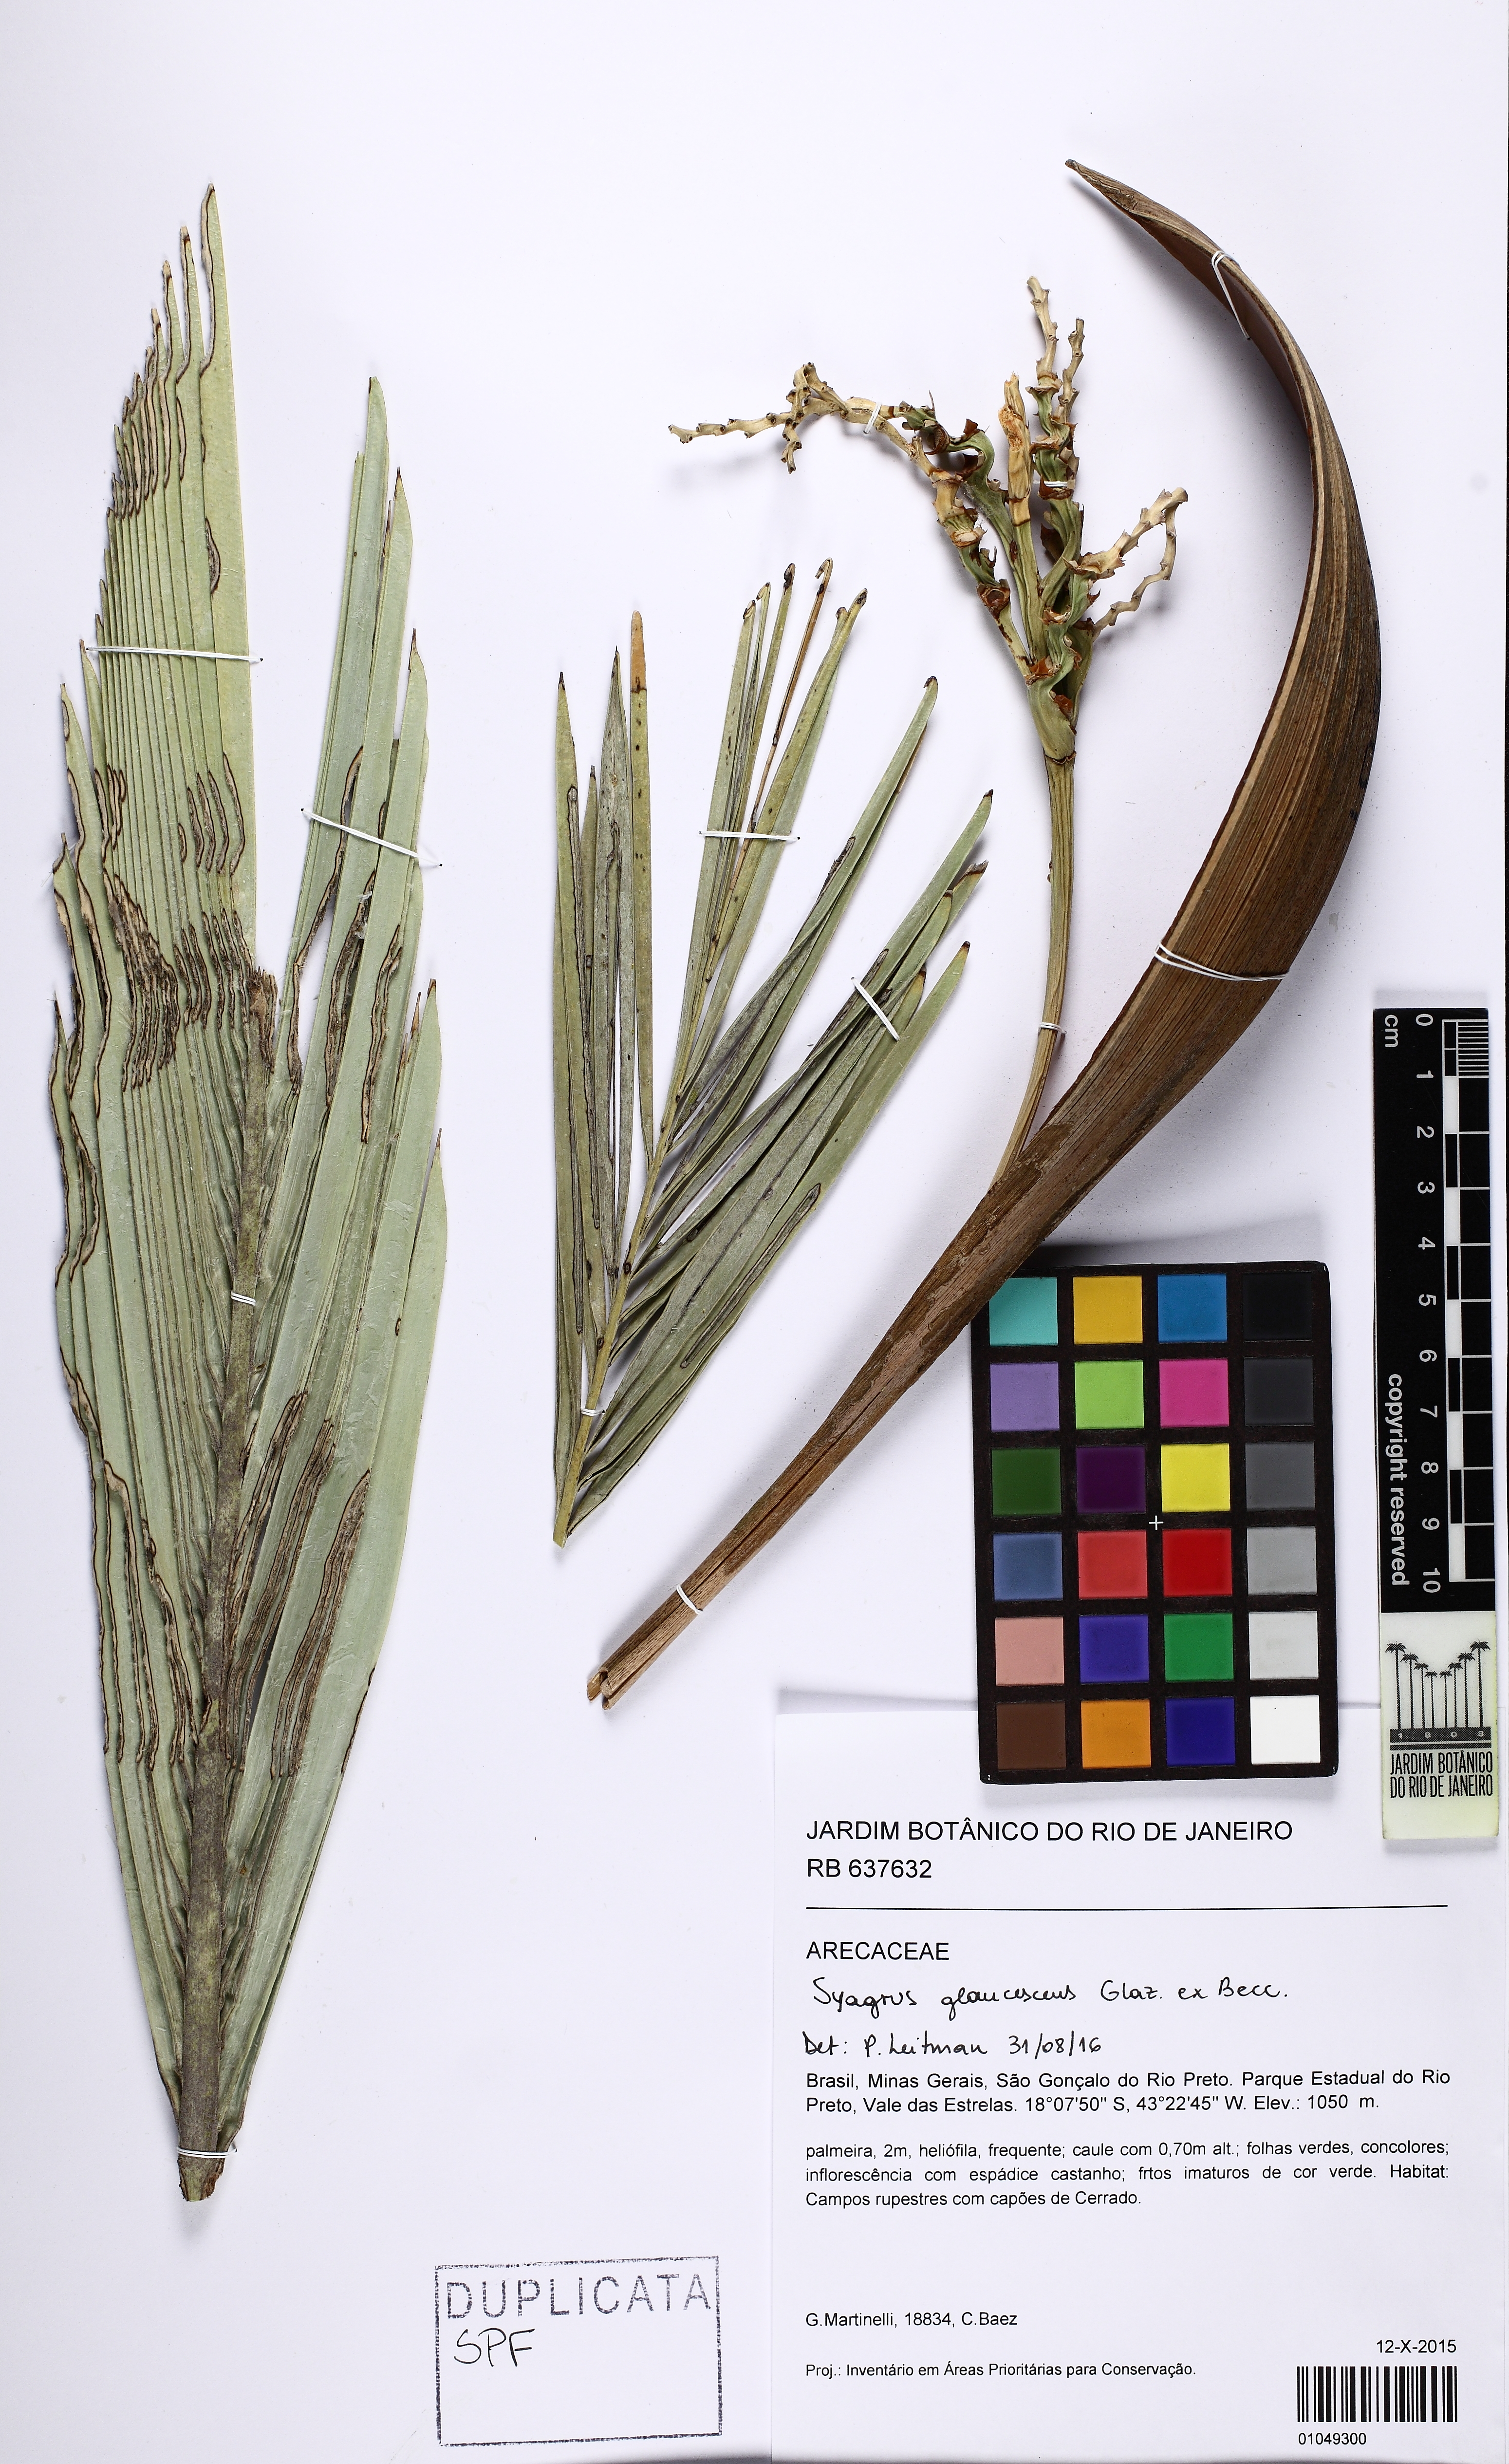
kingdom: Plantae
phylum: Tracheophyta
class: Liliopsida
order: Arecales
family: Arecaceae
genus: Syagrus
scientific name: Syagrus glaucescens
